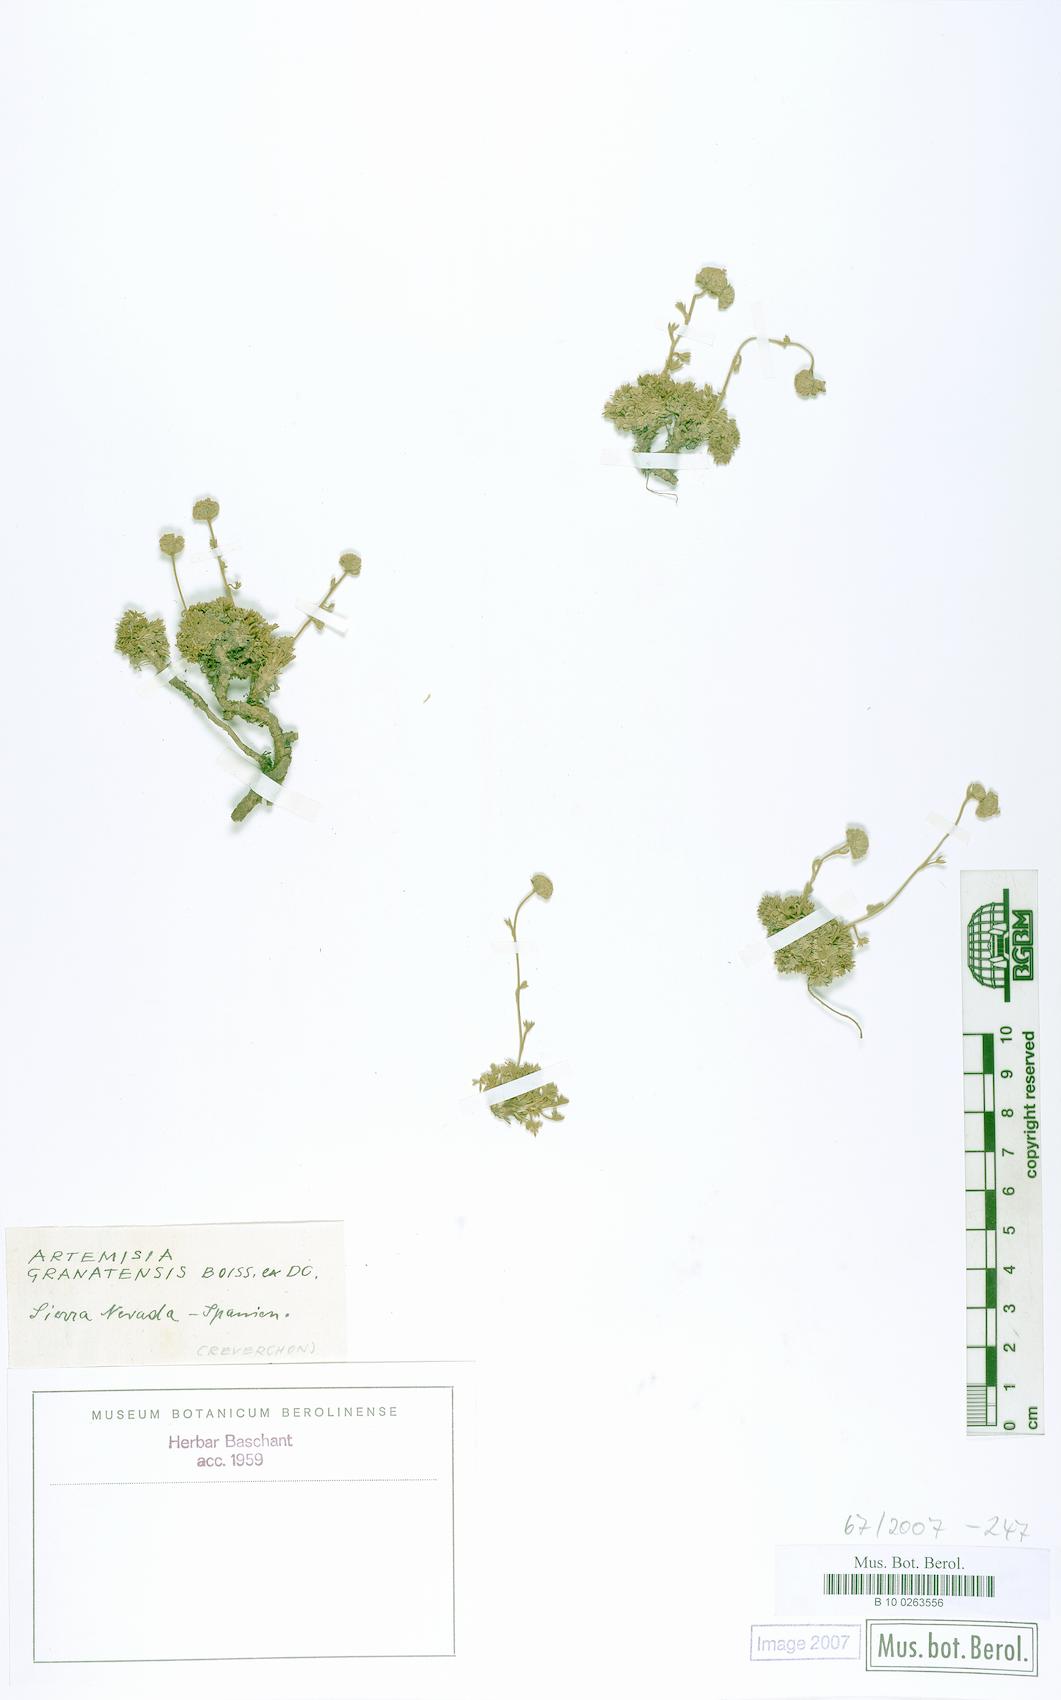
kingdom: Plantae
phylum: Tracheophyta
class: Magnoliopsida
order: Asterales
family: Asteraceae
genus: Artemisia
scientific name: Artemisia granatensis
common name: Royal chamomile
